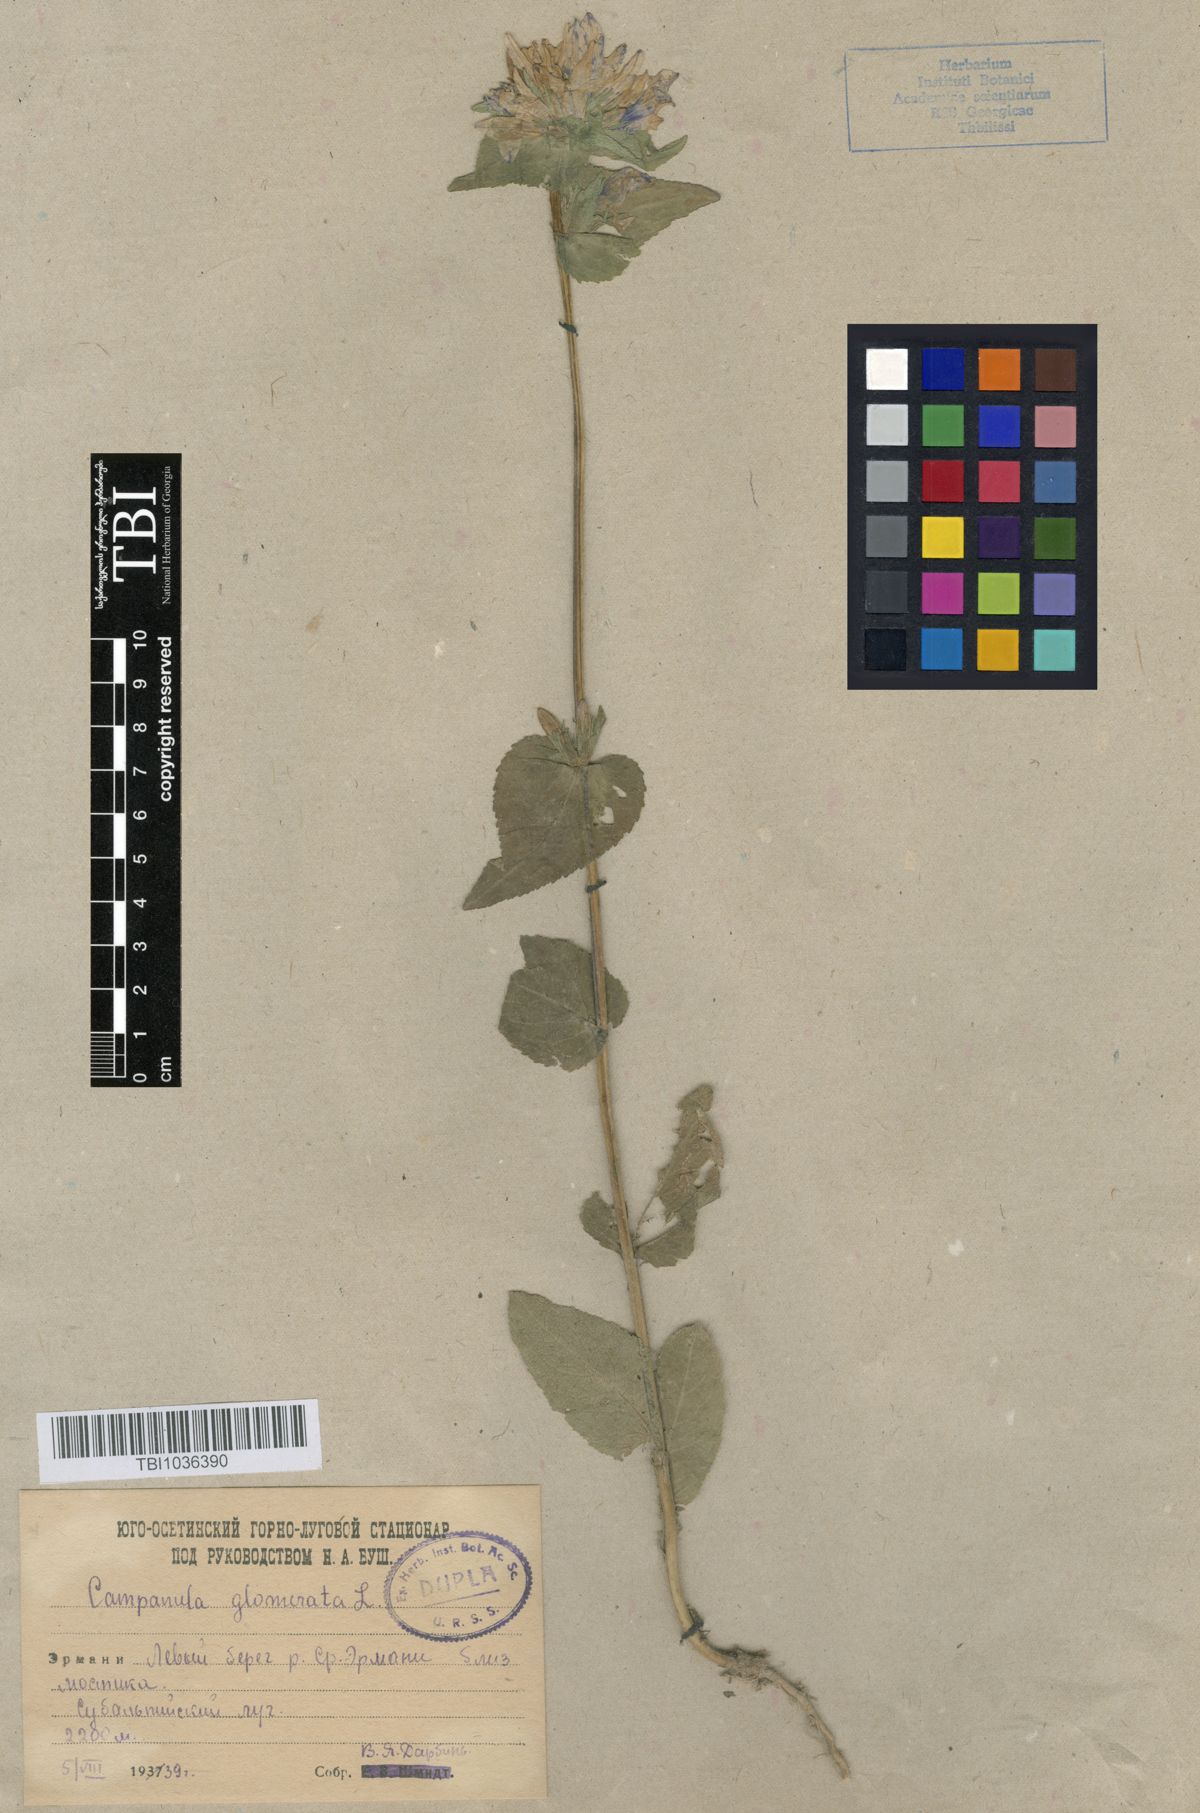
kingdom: Plantae
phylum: Tracheophyta
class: Magnoliopsida
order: Asterales
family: Campanulaceae
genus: Campanula
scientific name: Campanula glomerata
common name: Clustered bellflower
